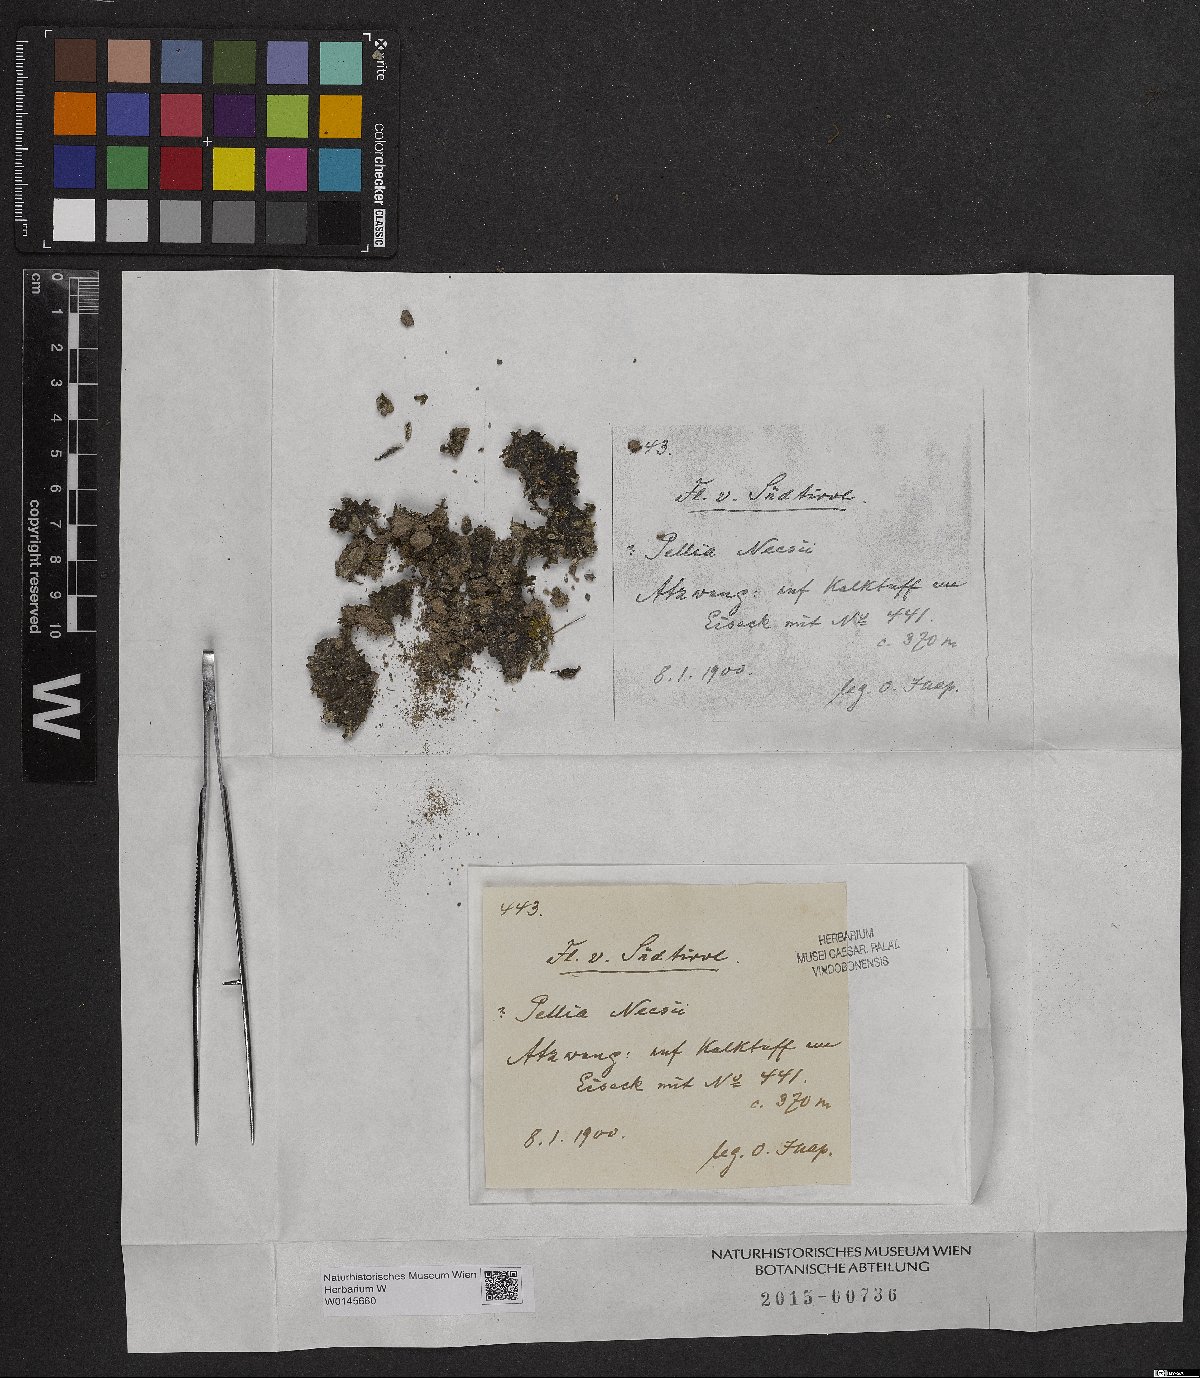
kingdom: Plantae
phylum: Marchantiophyta
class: Jungermanniopsida
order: Pelliales
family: Pelliaceae
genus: Pellia
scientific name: Pellia neesiana
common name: Nees  pellia
